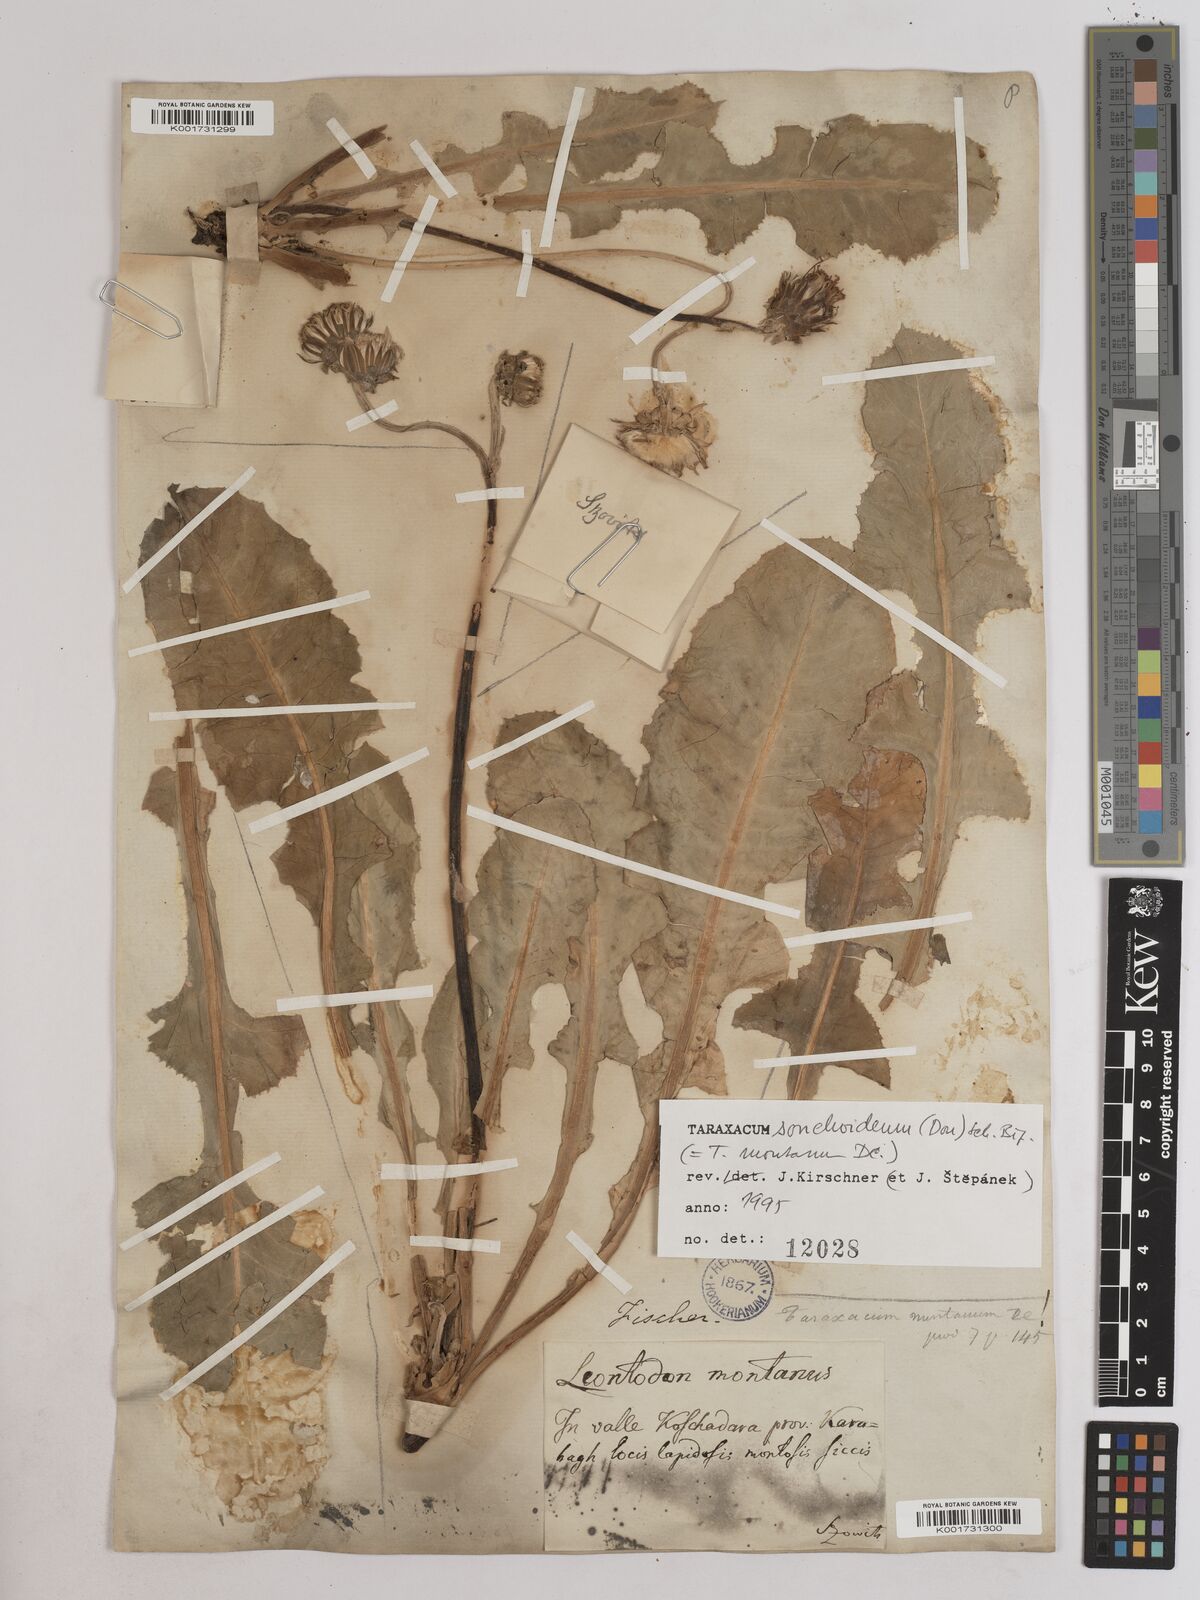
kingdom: Plantae
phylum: Tracheophyta
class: Magnoliopsida
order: Asterales
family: Asteraceae
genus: Taraxacum
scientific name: Taraxacum sonchoides
